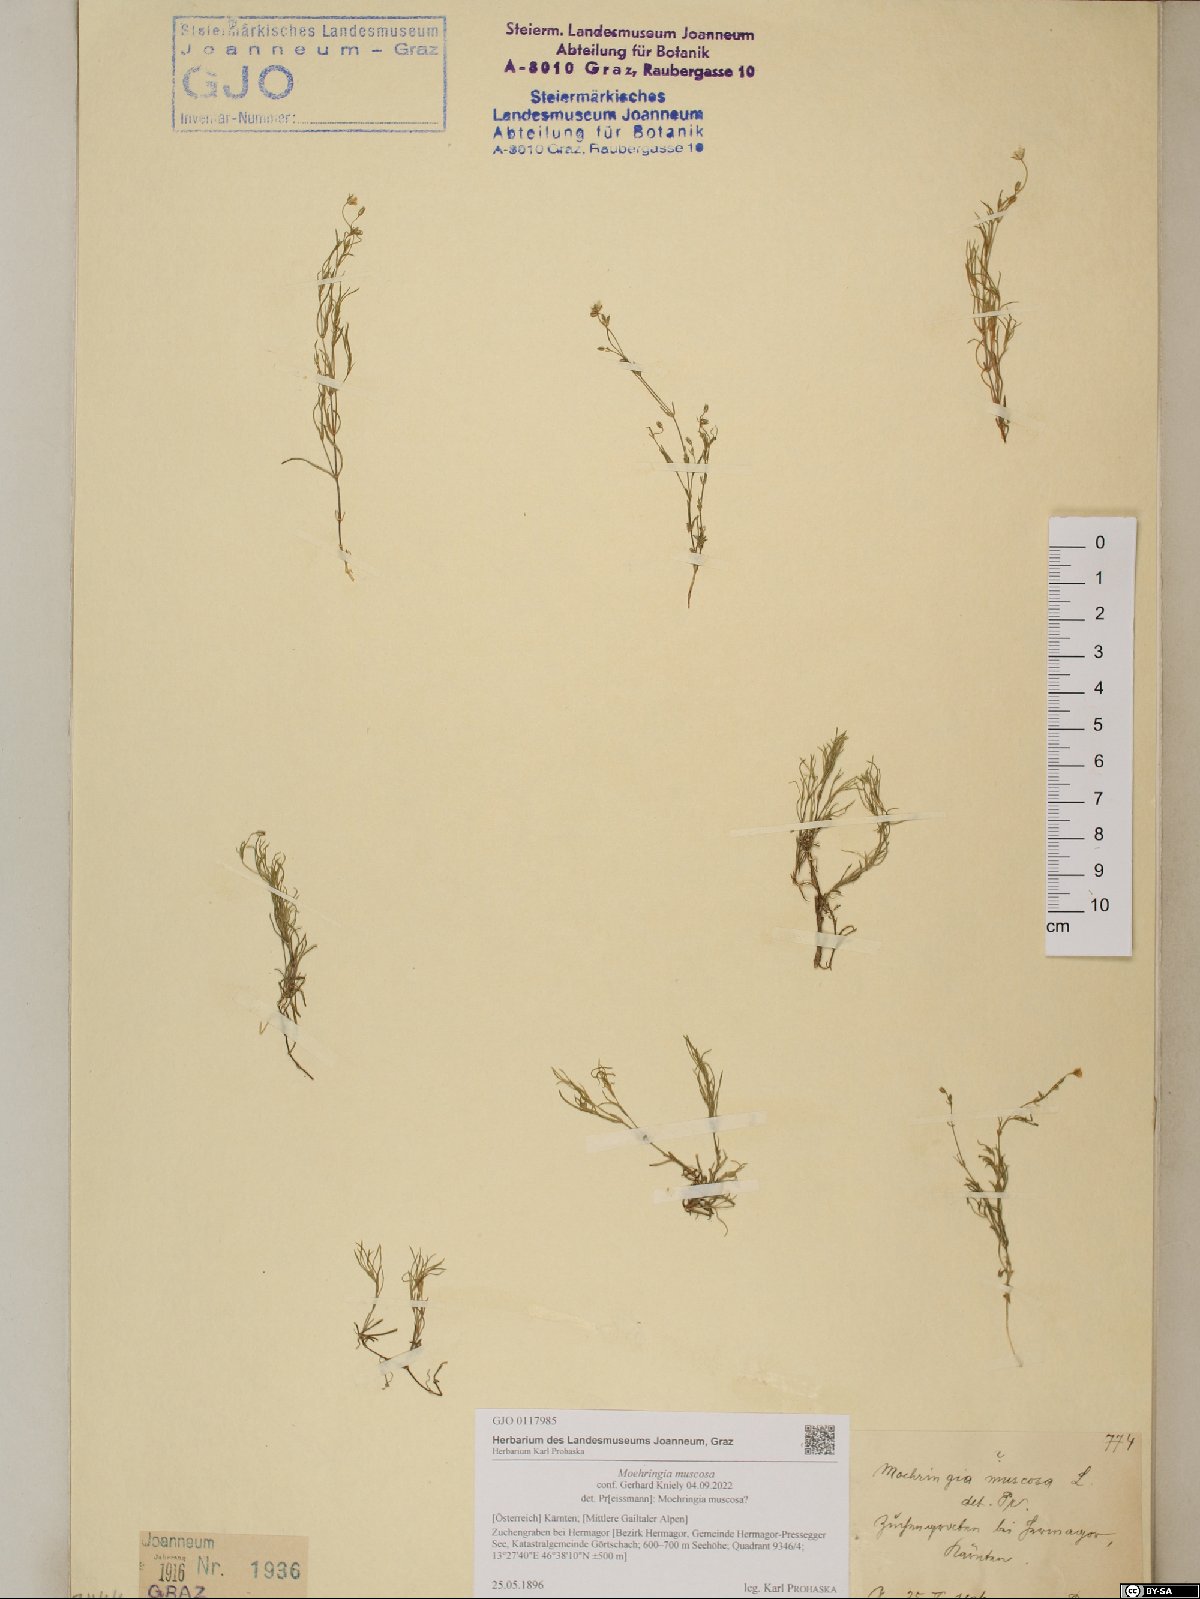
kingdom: Plantae
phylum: Tracheophyta
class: Magnoliopsida
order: Caryophyllales
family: Caryophyllaceae
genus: Moehringia
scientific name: Moehringia muscosa
